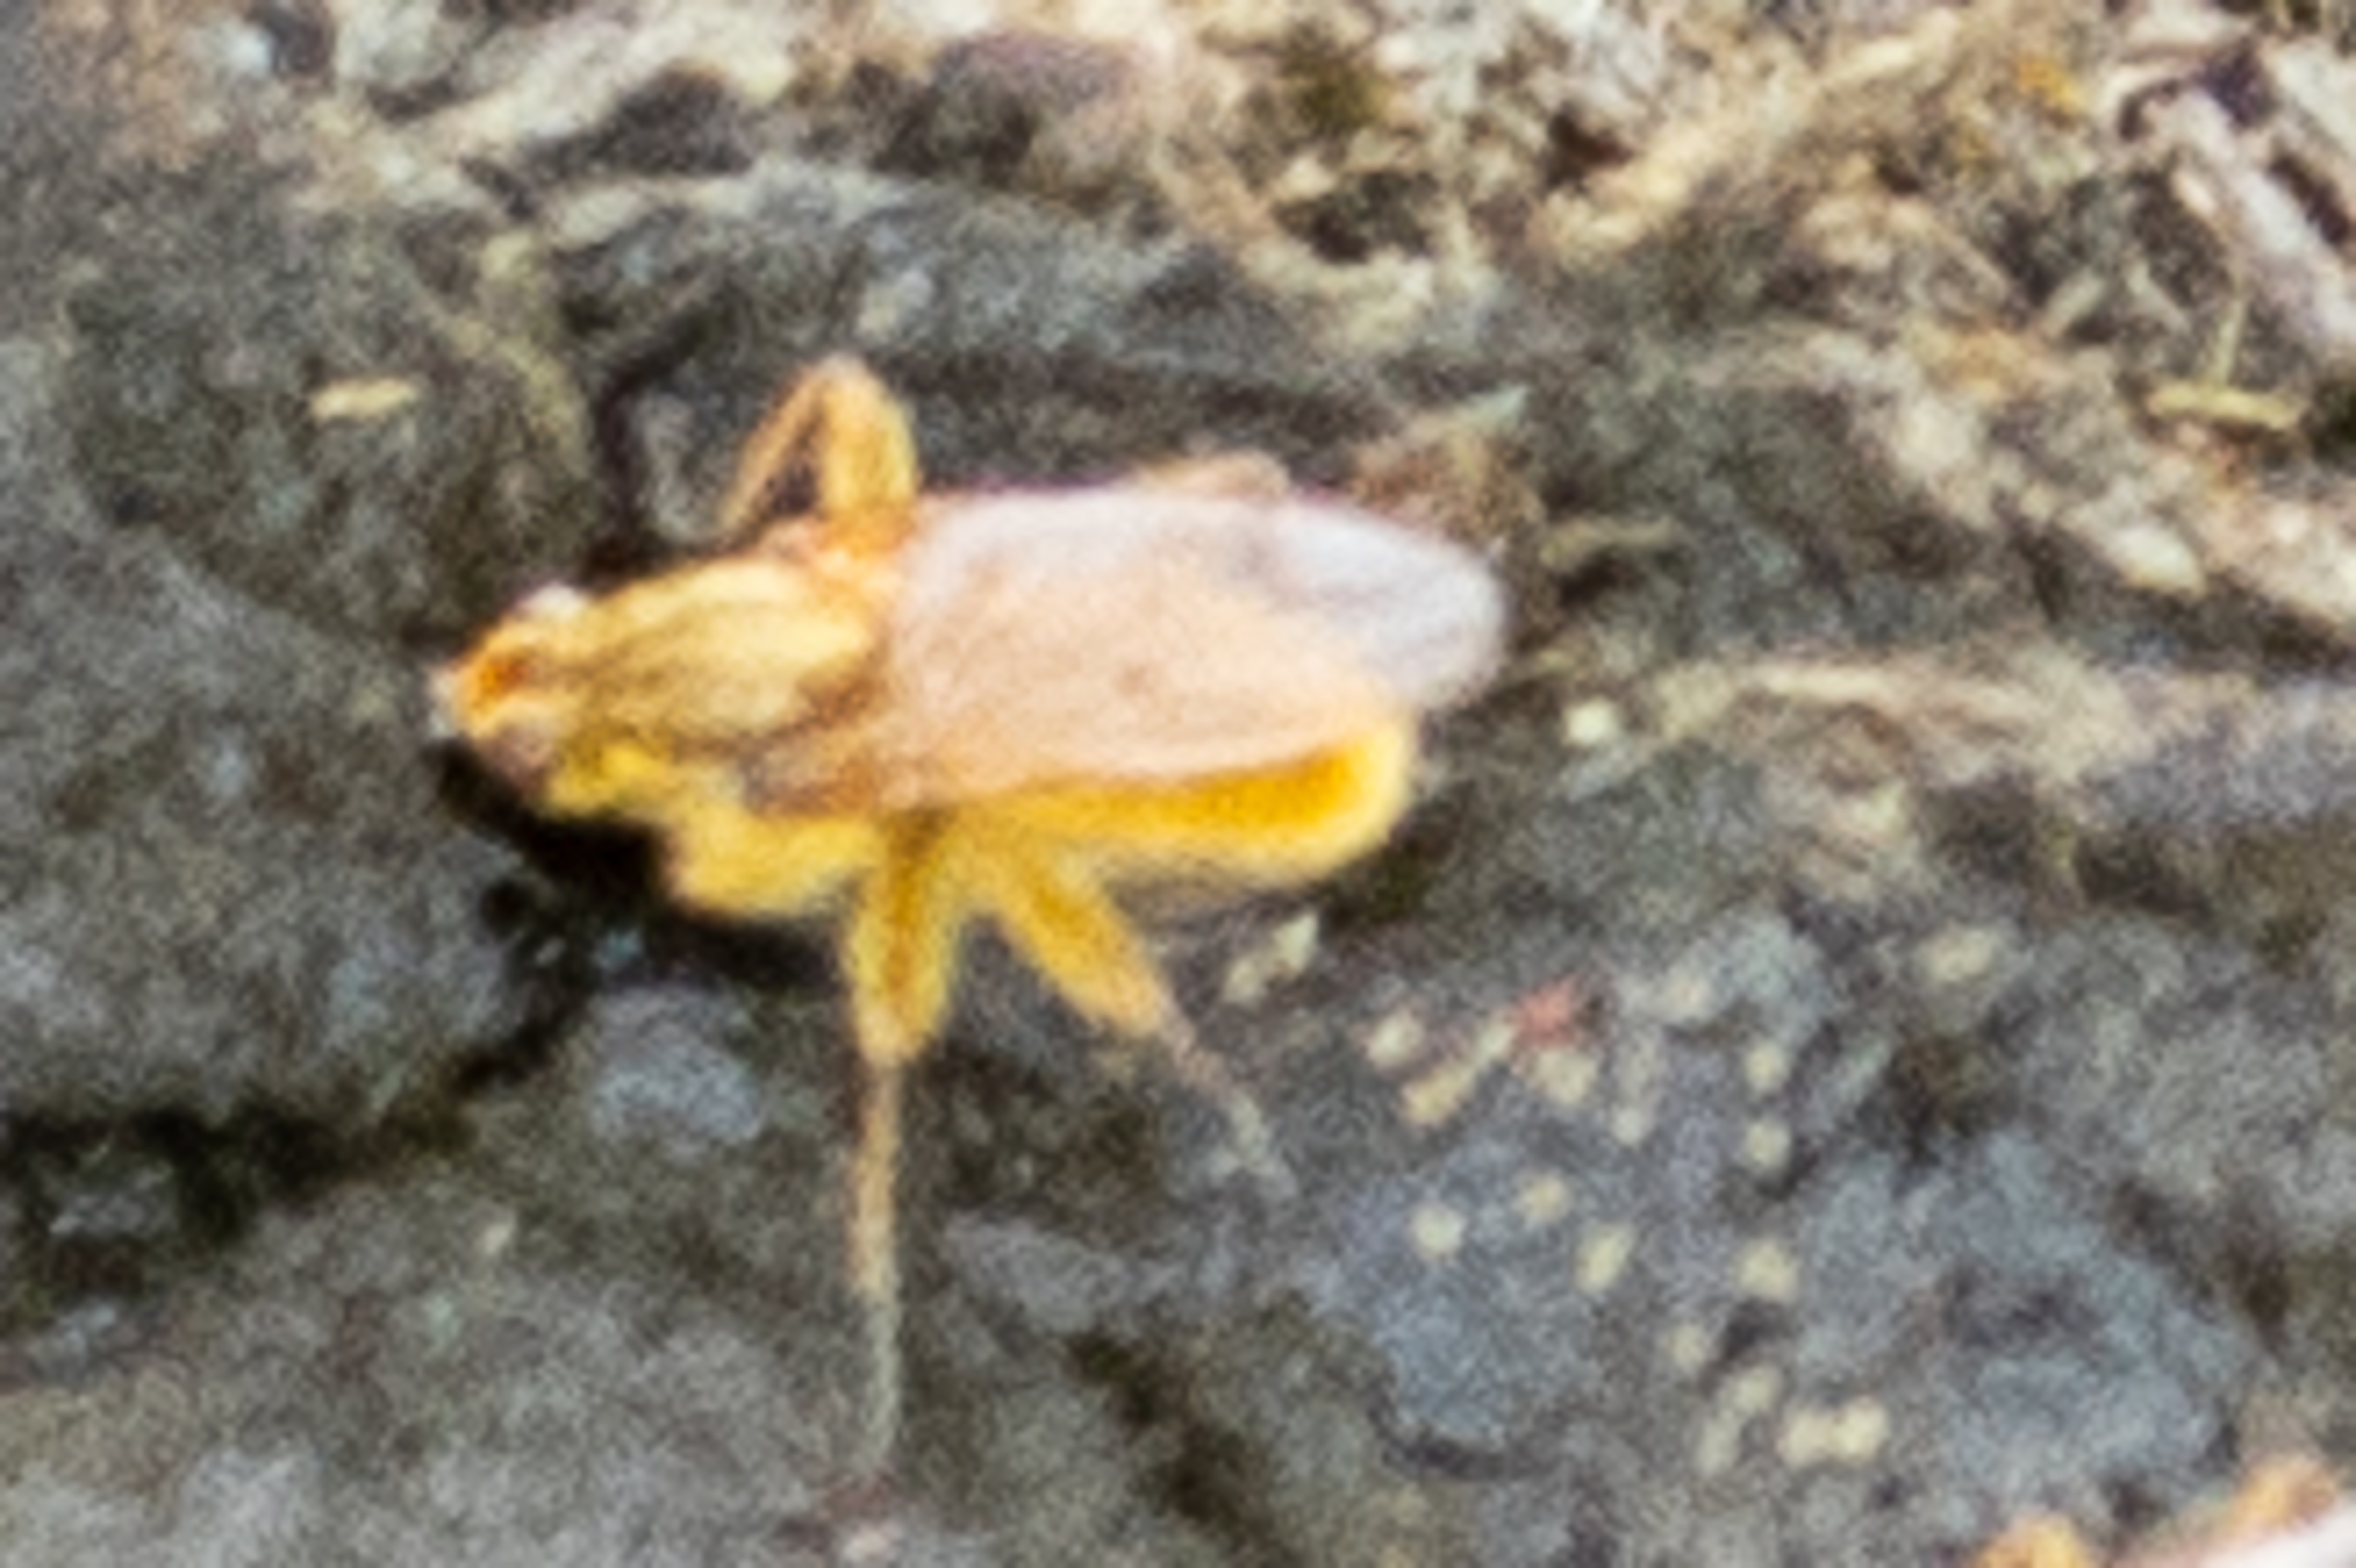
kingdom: Animalia
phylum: Arthropoda
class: Insecta
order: Diptera
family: Scathophagidae
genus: Scathophaga
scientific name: Scathophaga stercoraria
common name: Almindelig gødningsflue
